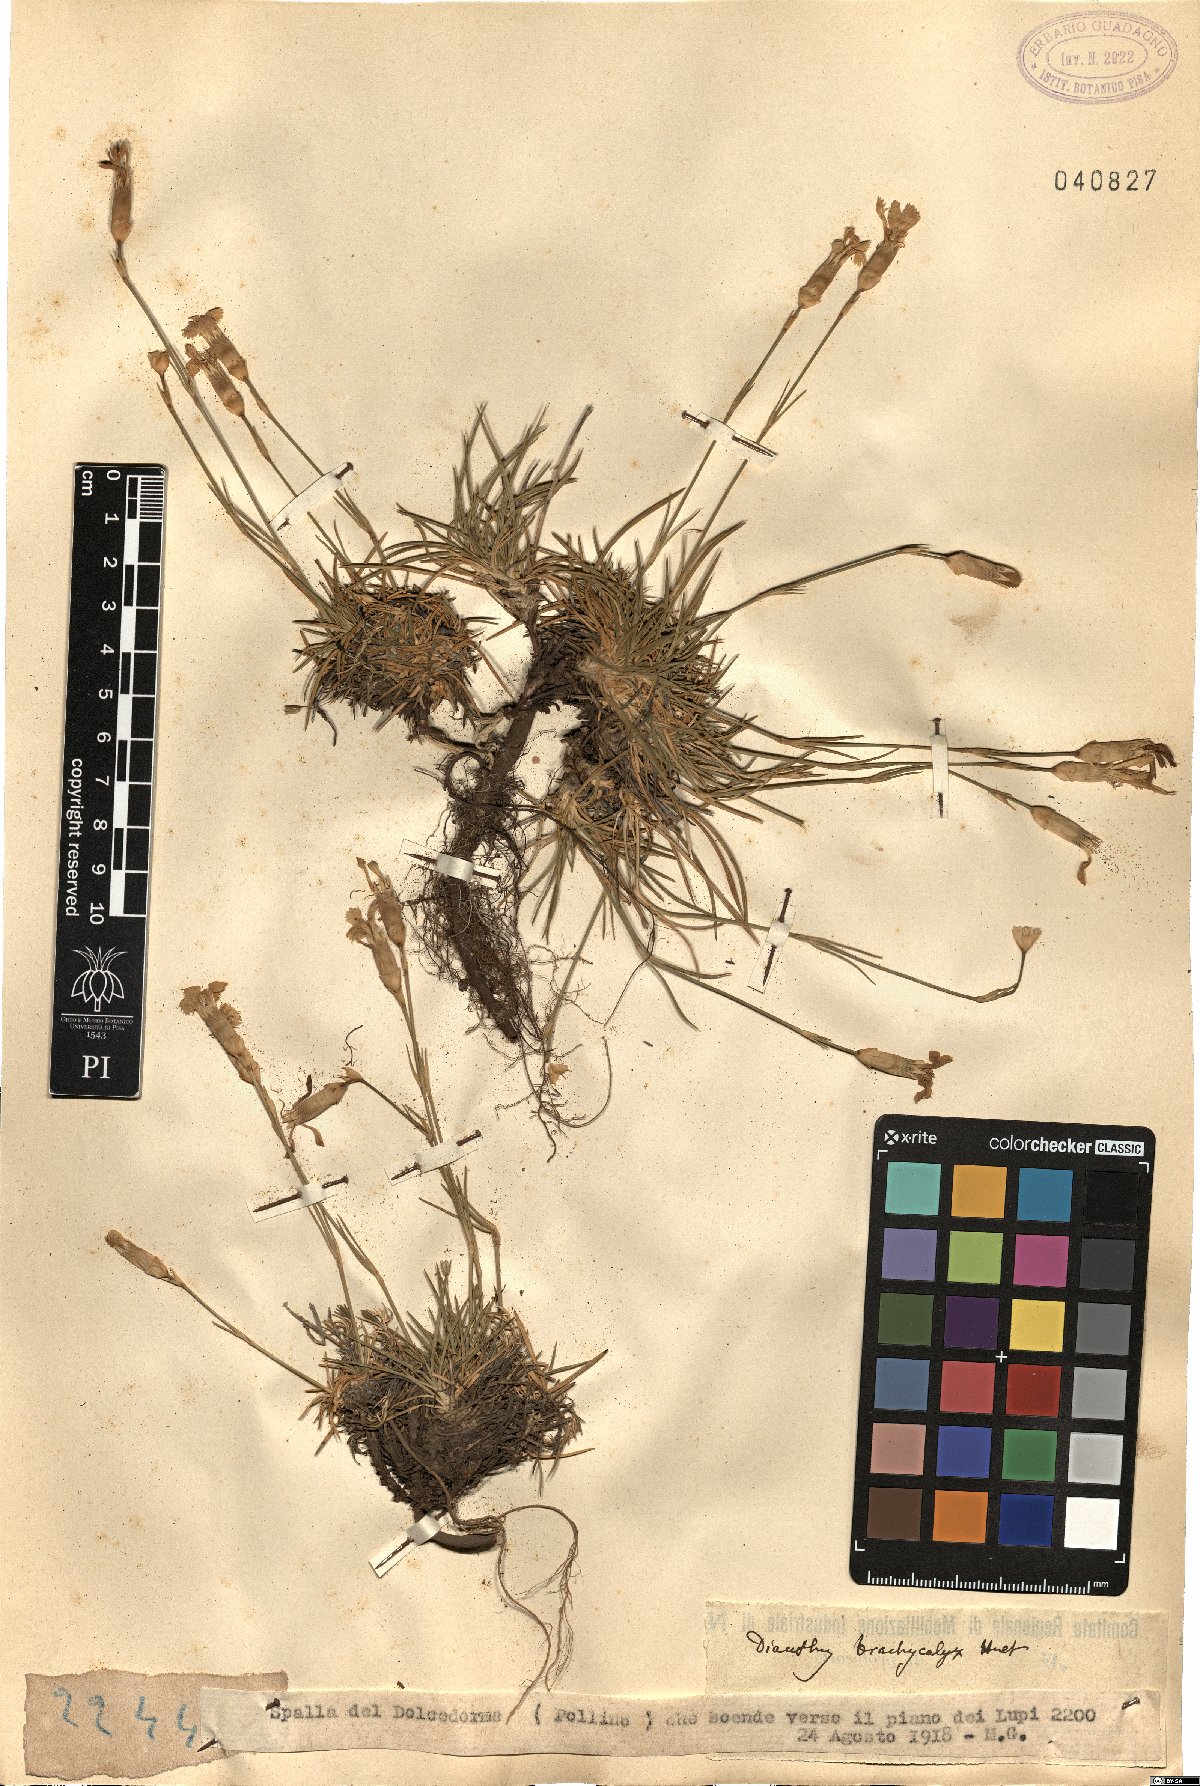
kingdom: Plantae
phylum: Tracheophyta
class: Magnoliopsida
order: Caryophyllales
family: Caryophyllaceae
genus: Dianthus
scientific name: Dianthus brachycalyx
